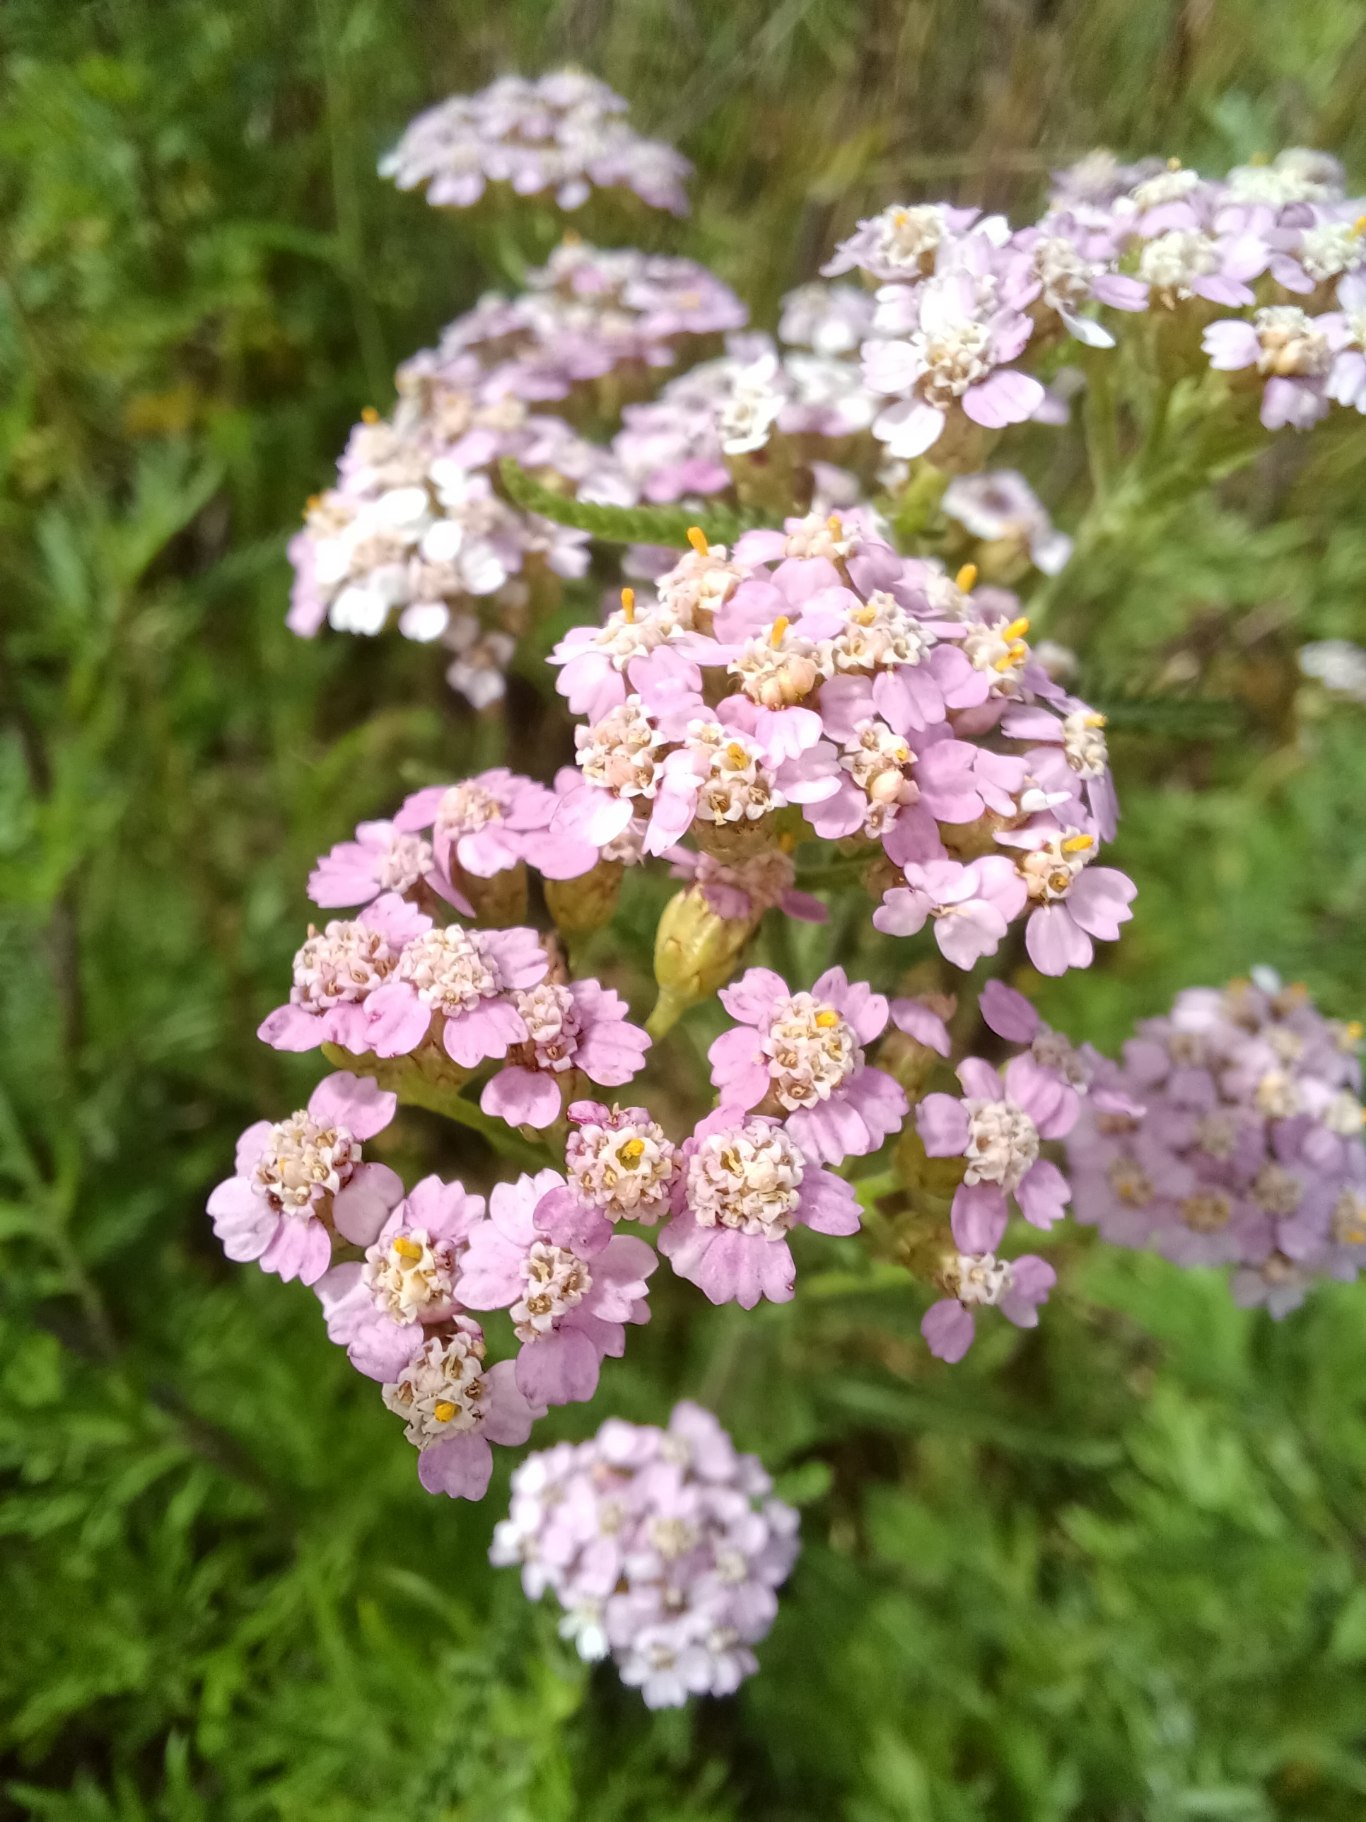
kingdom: Plantae
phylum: Tracheophyta
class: Magnoliopsida
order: Asterales
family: Asteraceae
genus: Achillea
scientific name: Achillea millefolium
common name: Almindelig røllike
